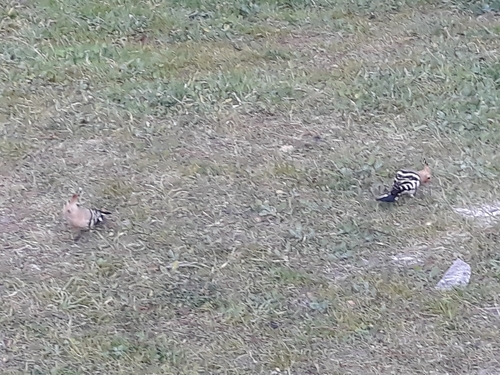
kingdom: Animalia
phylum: Chordata
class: Aves
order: Bucerotiformes
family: Upupidae
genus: Upupa
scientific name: Upupa epops
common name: Eurasian hoopoe
